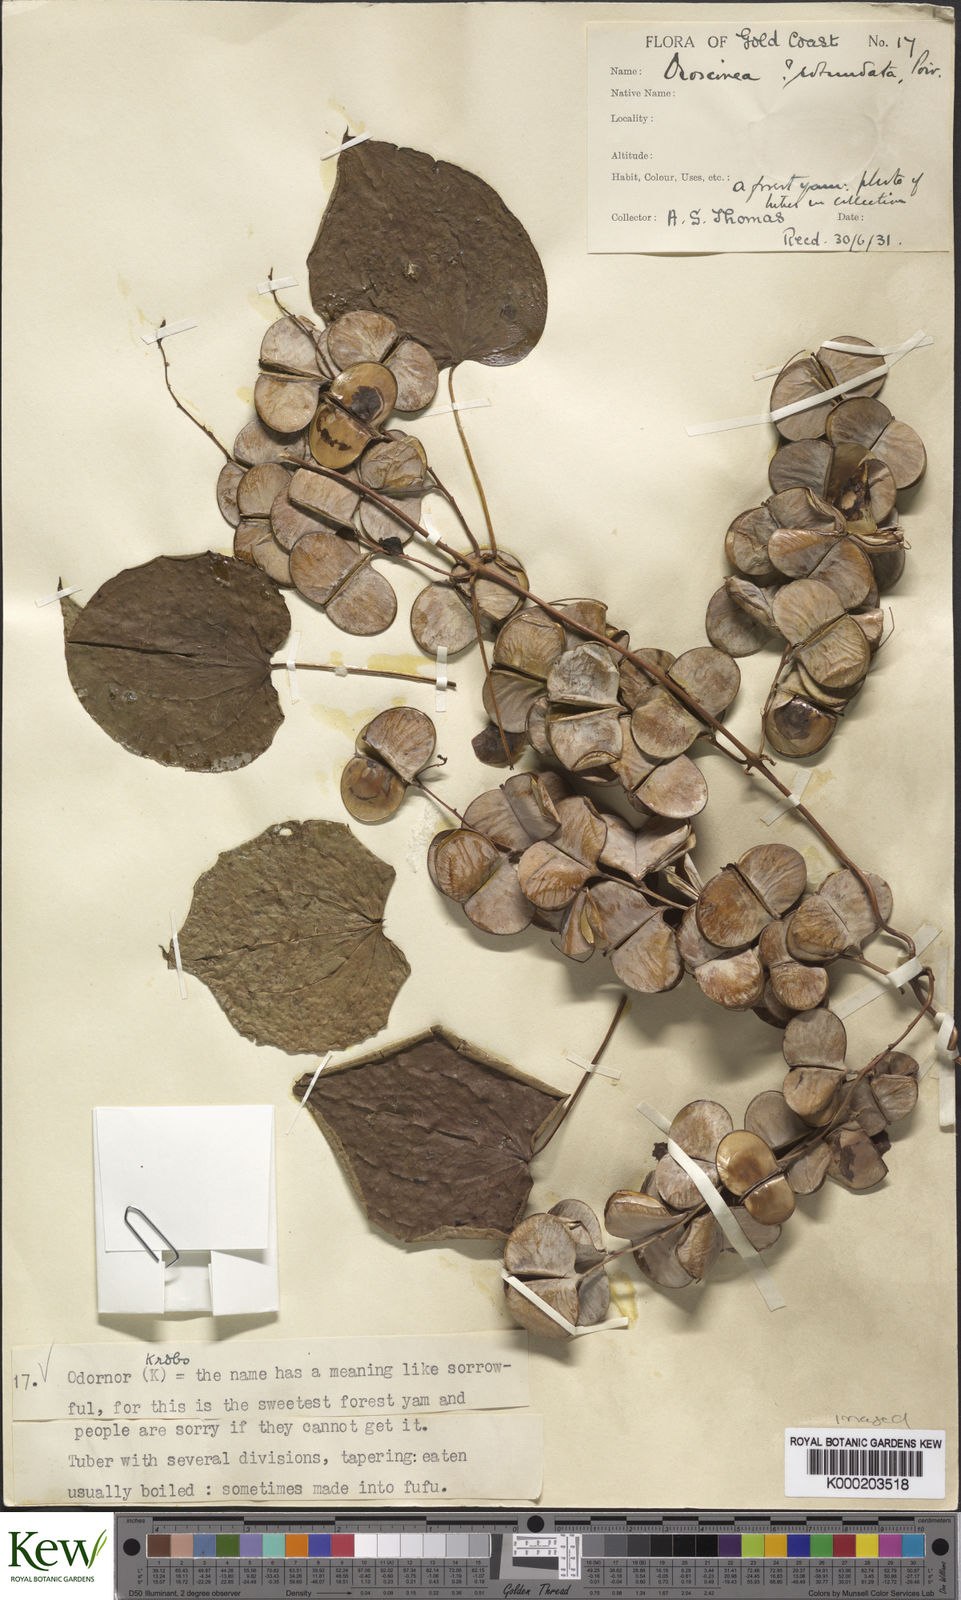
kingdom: Plantae
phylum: Tracheophyta
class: Liliopsida
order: Dioscoreales
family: Dioscoreaceae
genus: Dioscorea
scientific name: Dioscorea cayenensis
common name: Attoto yam
